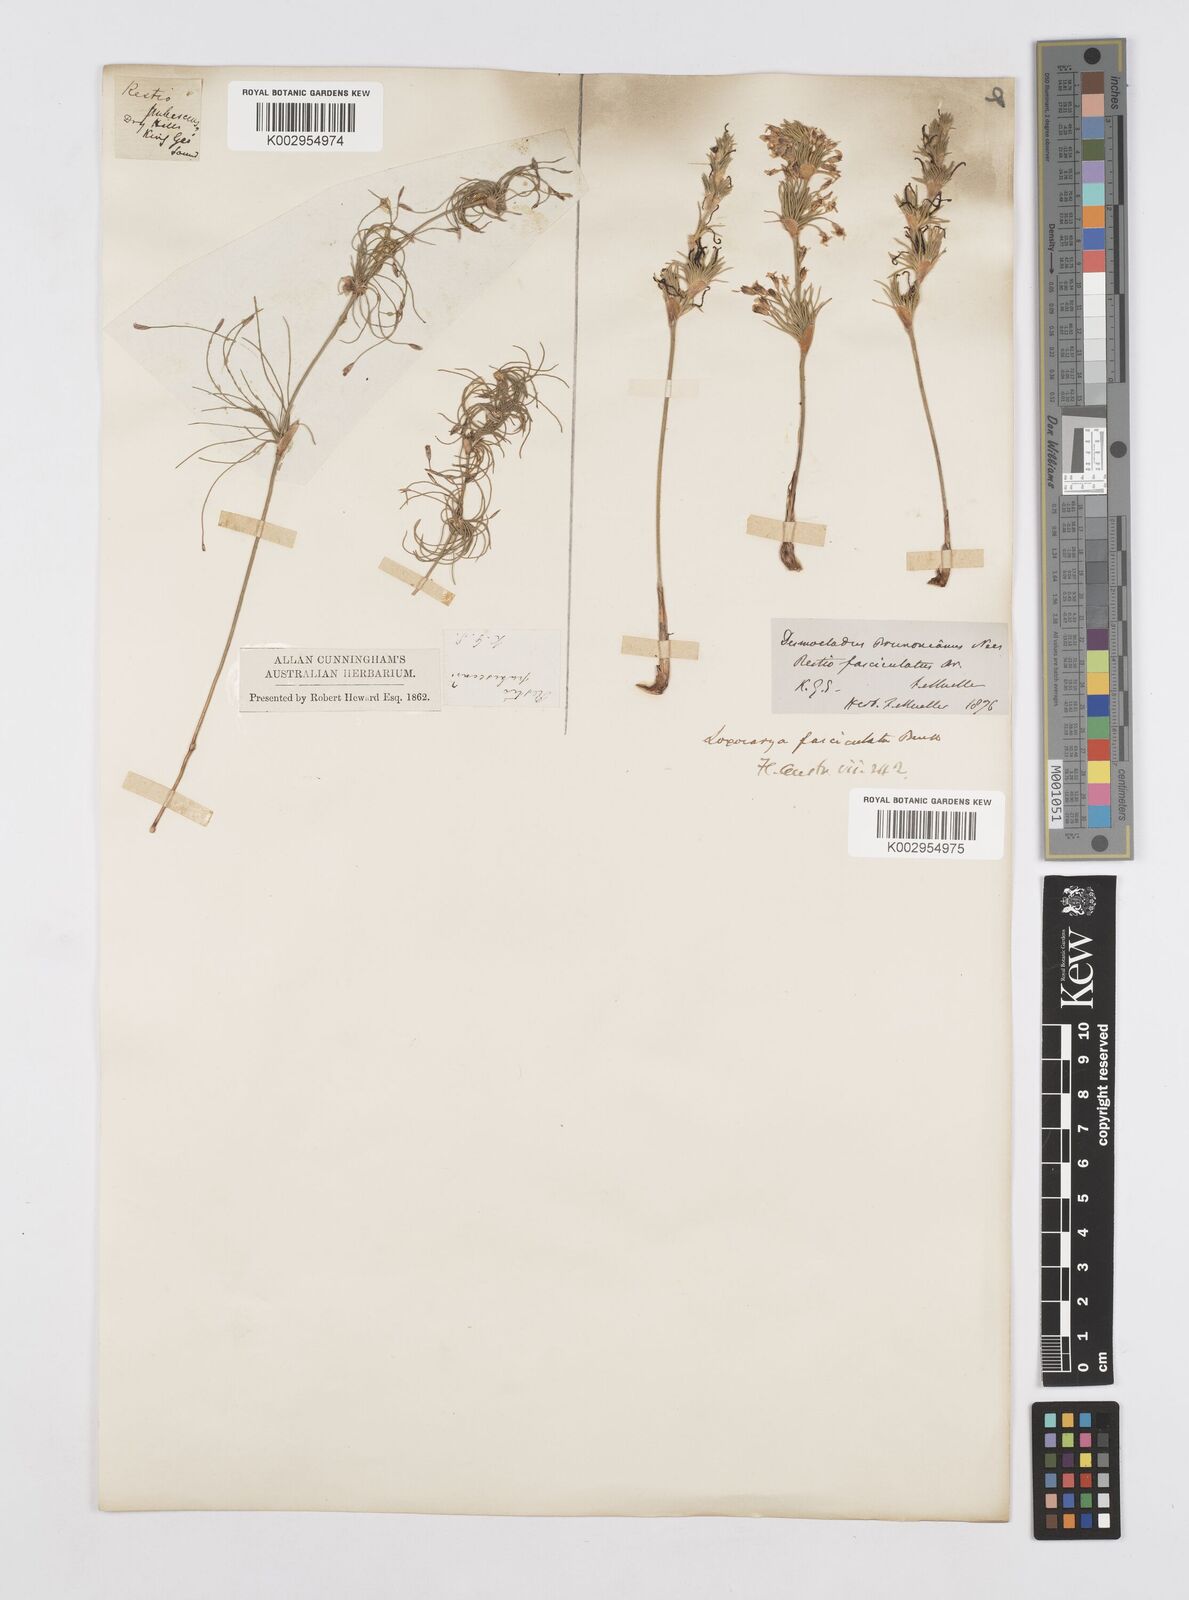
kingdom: Plantae
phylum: Tracheophyta
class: Liliopsida
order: Poales
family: Restionaceae
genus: Desmocladus
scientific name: Desmocladus fasciculatus
